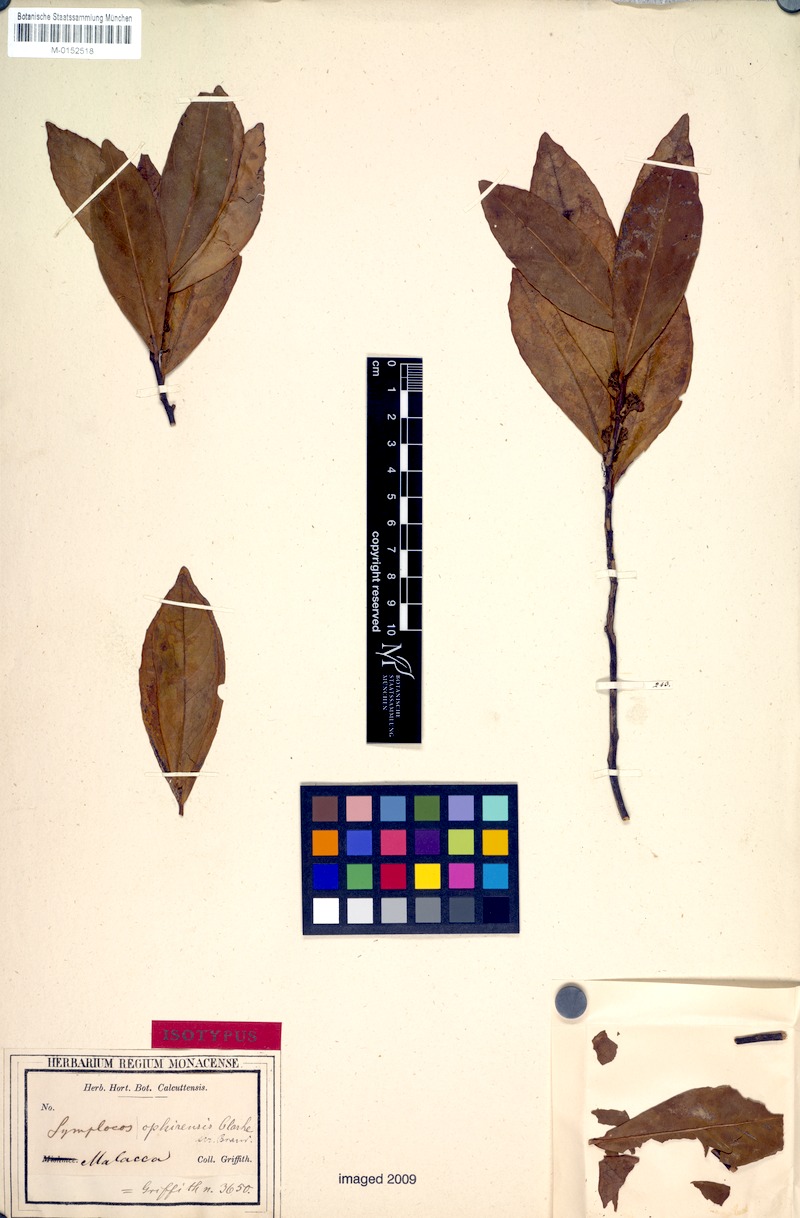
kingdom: Plantae
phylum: Tracheophyta
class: Magnoliopsida
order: Ericales
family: Symplocaceae
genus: Symplocos
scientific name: Symplocos ophirensis
